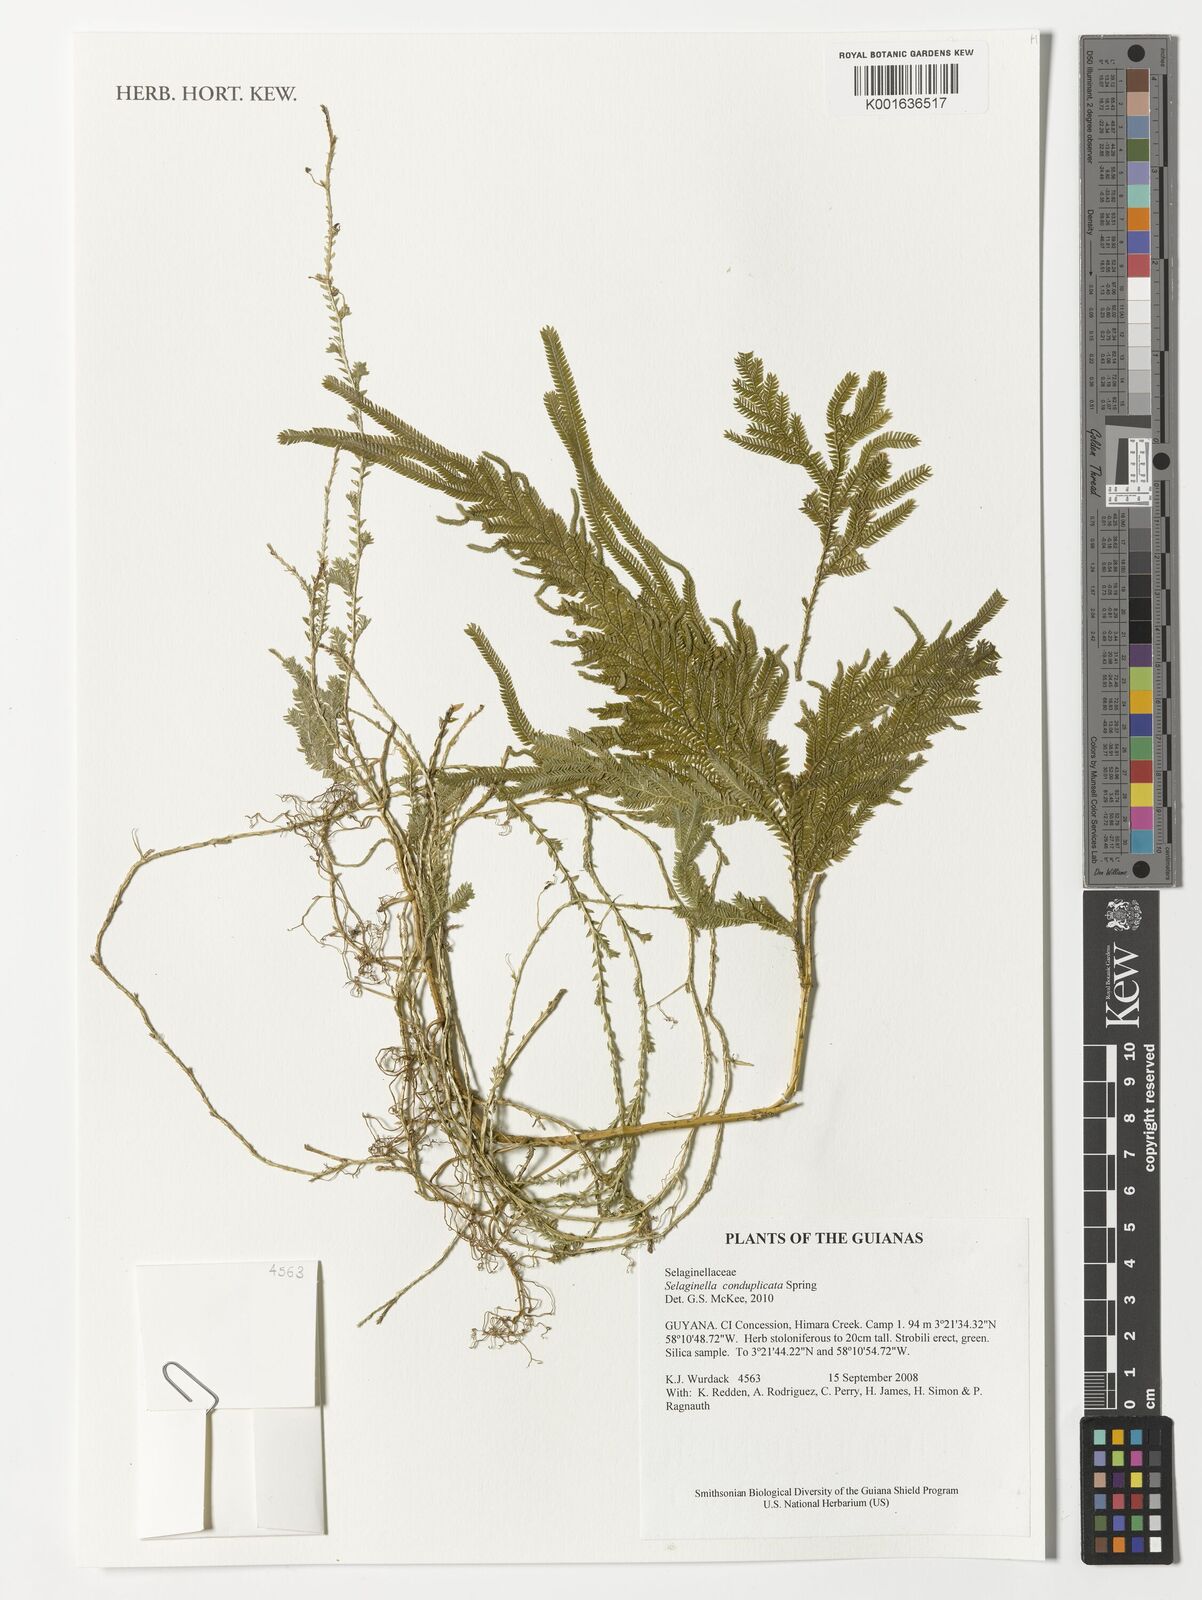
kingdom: Plantae
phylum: Tracheophyta
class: Lycopodiopsida
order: Selaginellales
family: Selaginellaceae
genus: Selaginella
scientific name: Selaginella conduplicata
